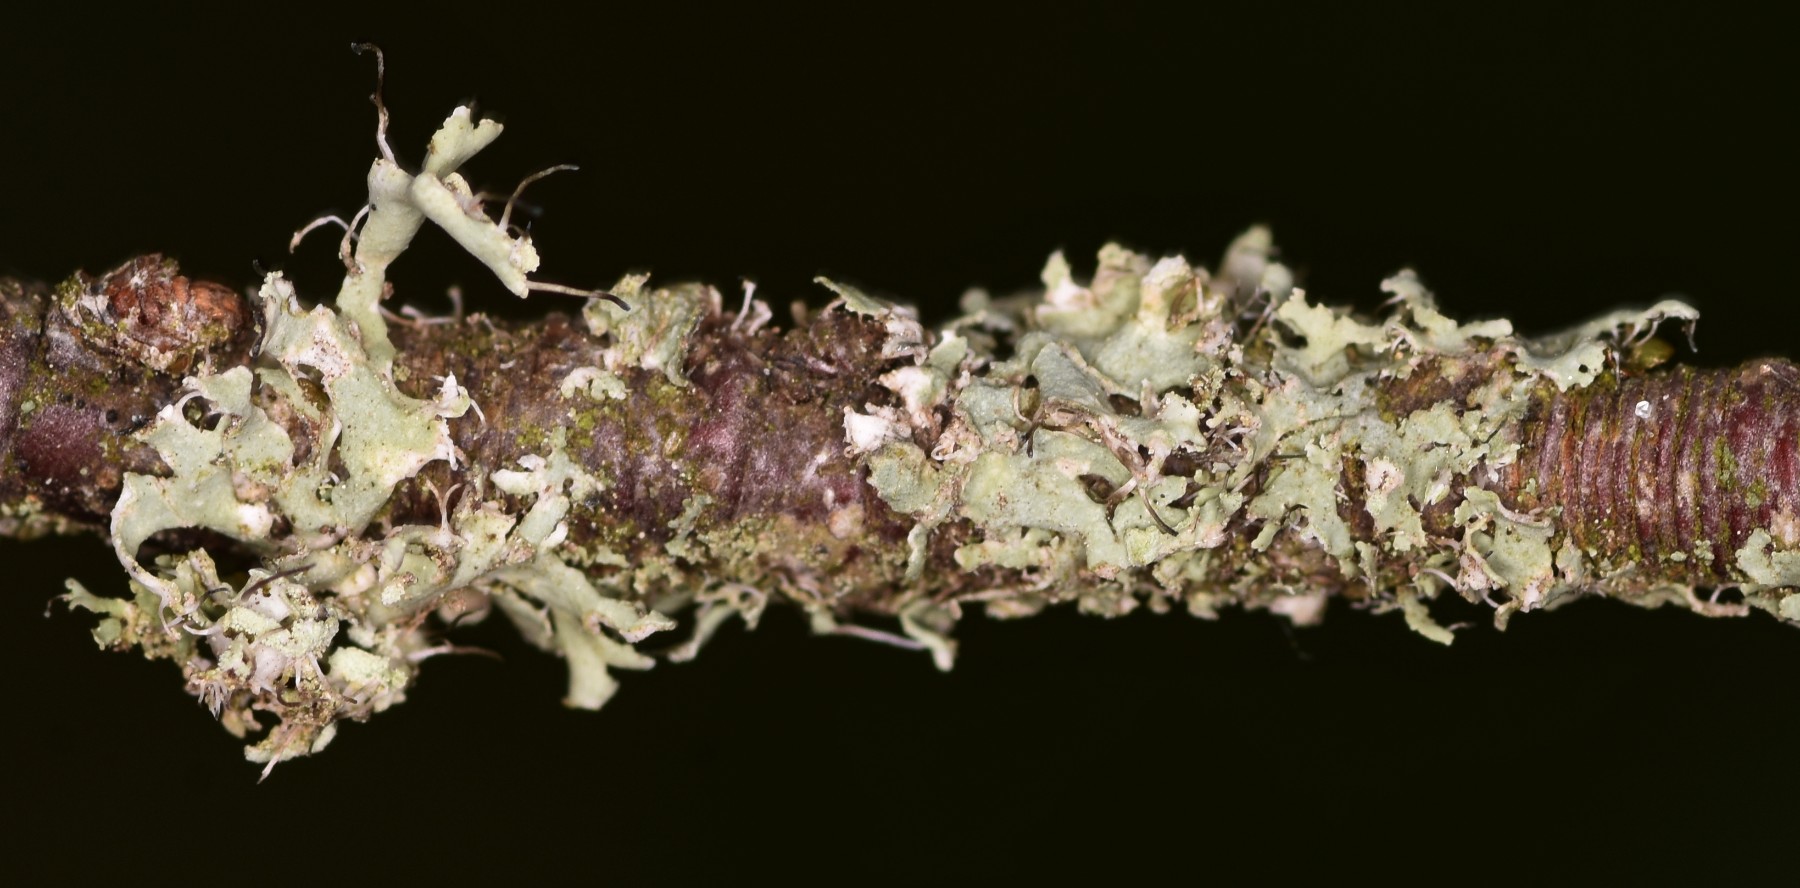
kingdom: Fungi
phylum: Ascomycota
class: Lecanoromycetes
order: Caliciales
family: Physciaceae
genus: Physcia
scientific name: Physcia tenella
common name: spæd rosetlav
